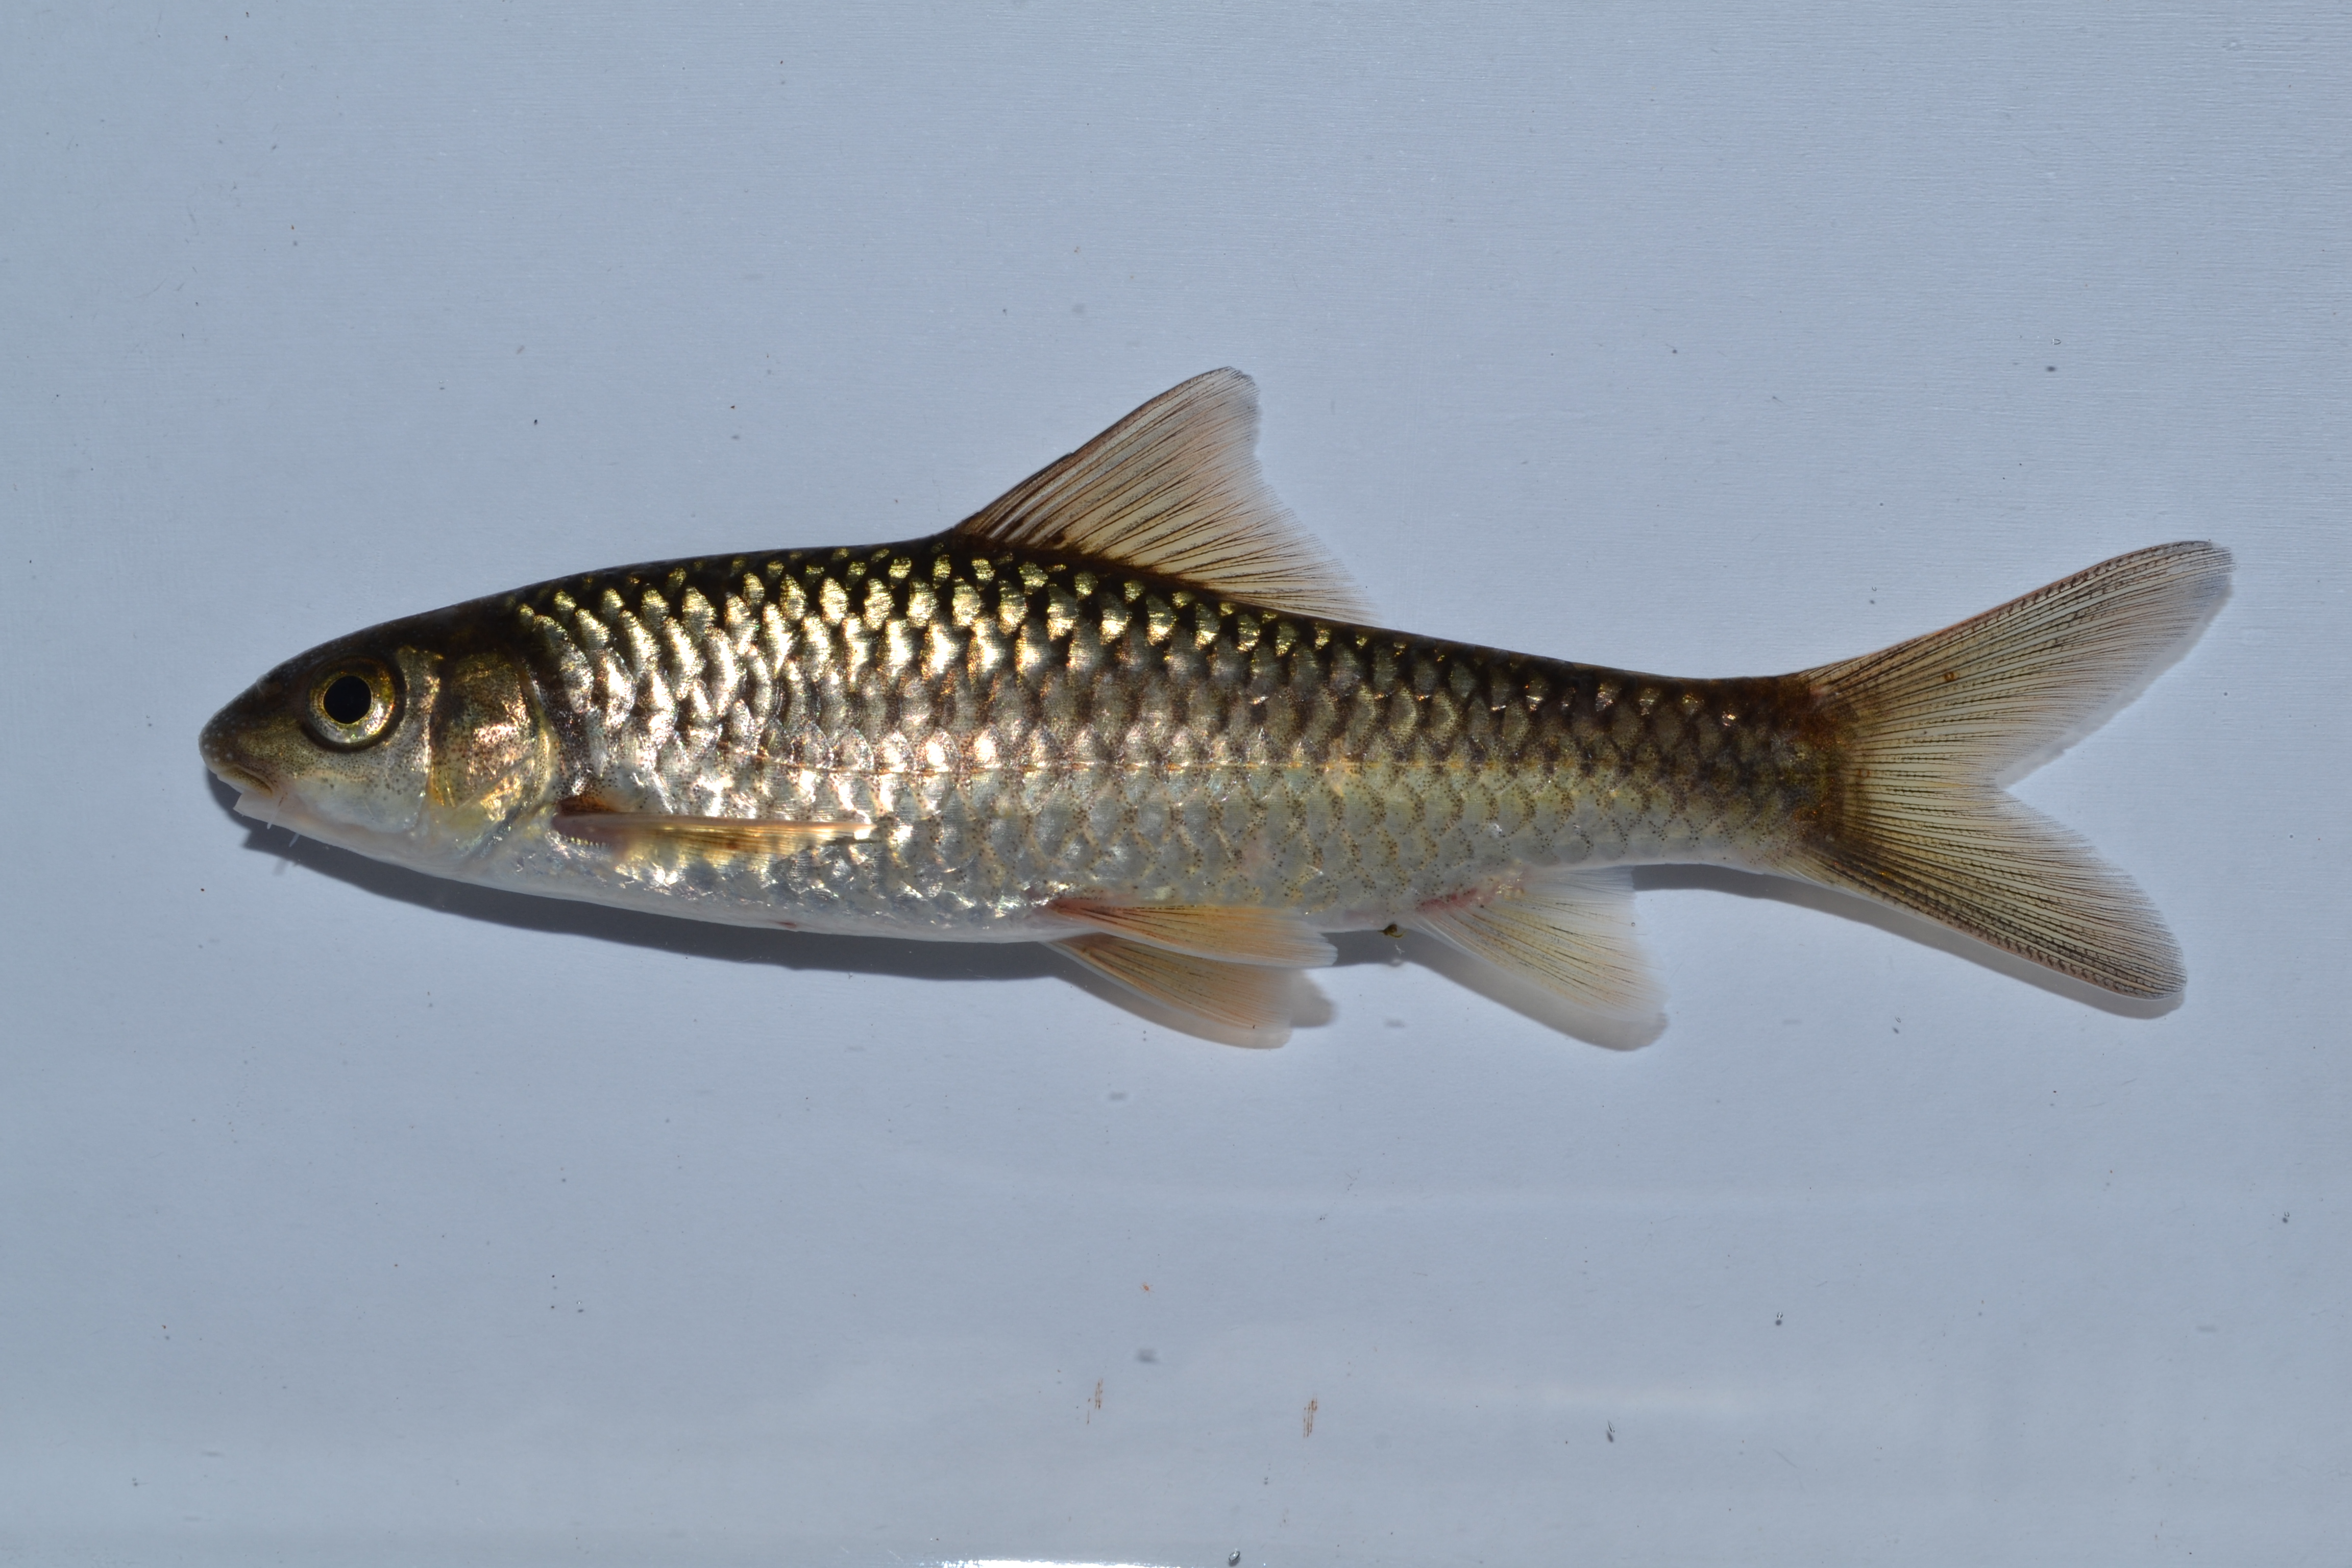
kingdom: Animalia
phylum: Chordata
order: Cypriniformes
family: Cyprinidae
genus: Labeobarbus
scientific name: Labeobarbus pungweensis
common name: Pungwe chiselmouth
